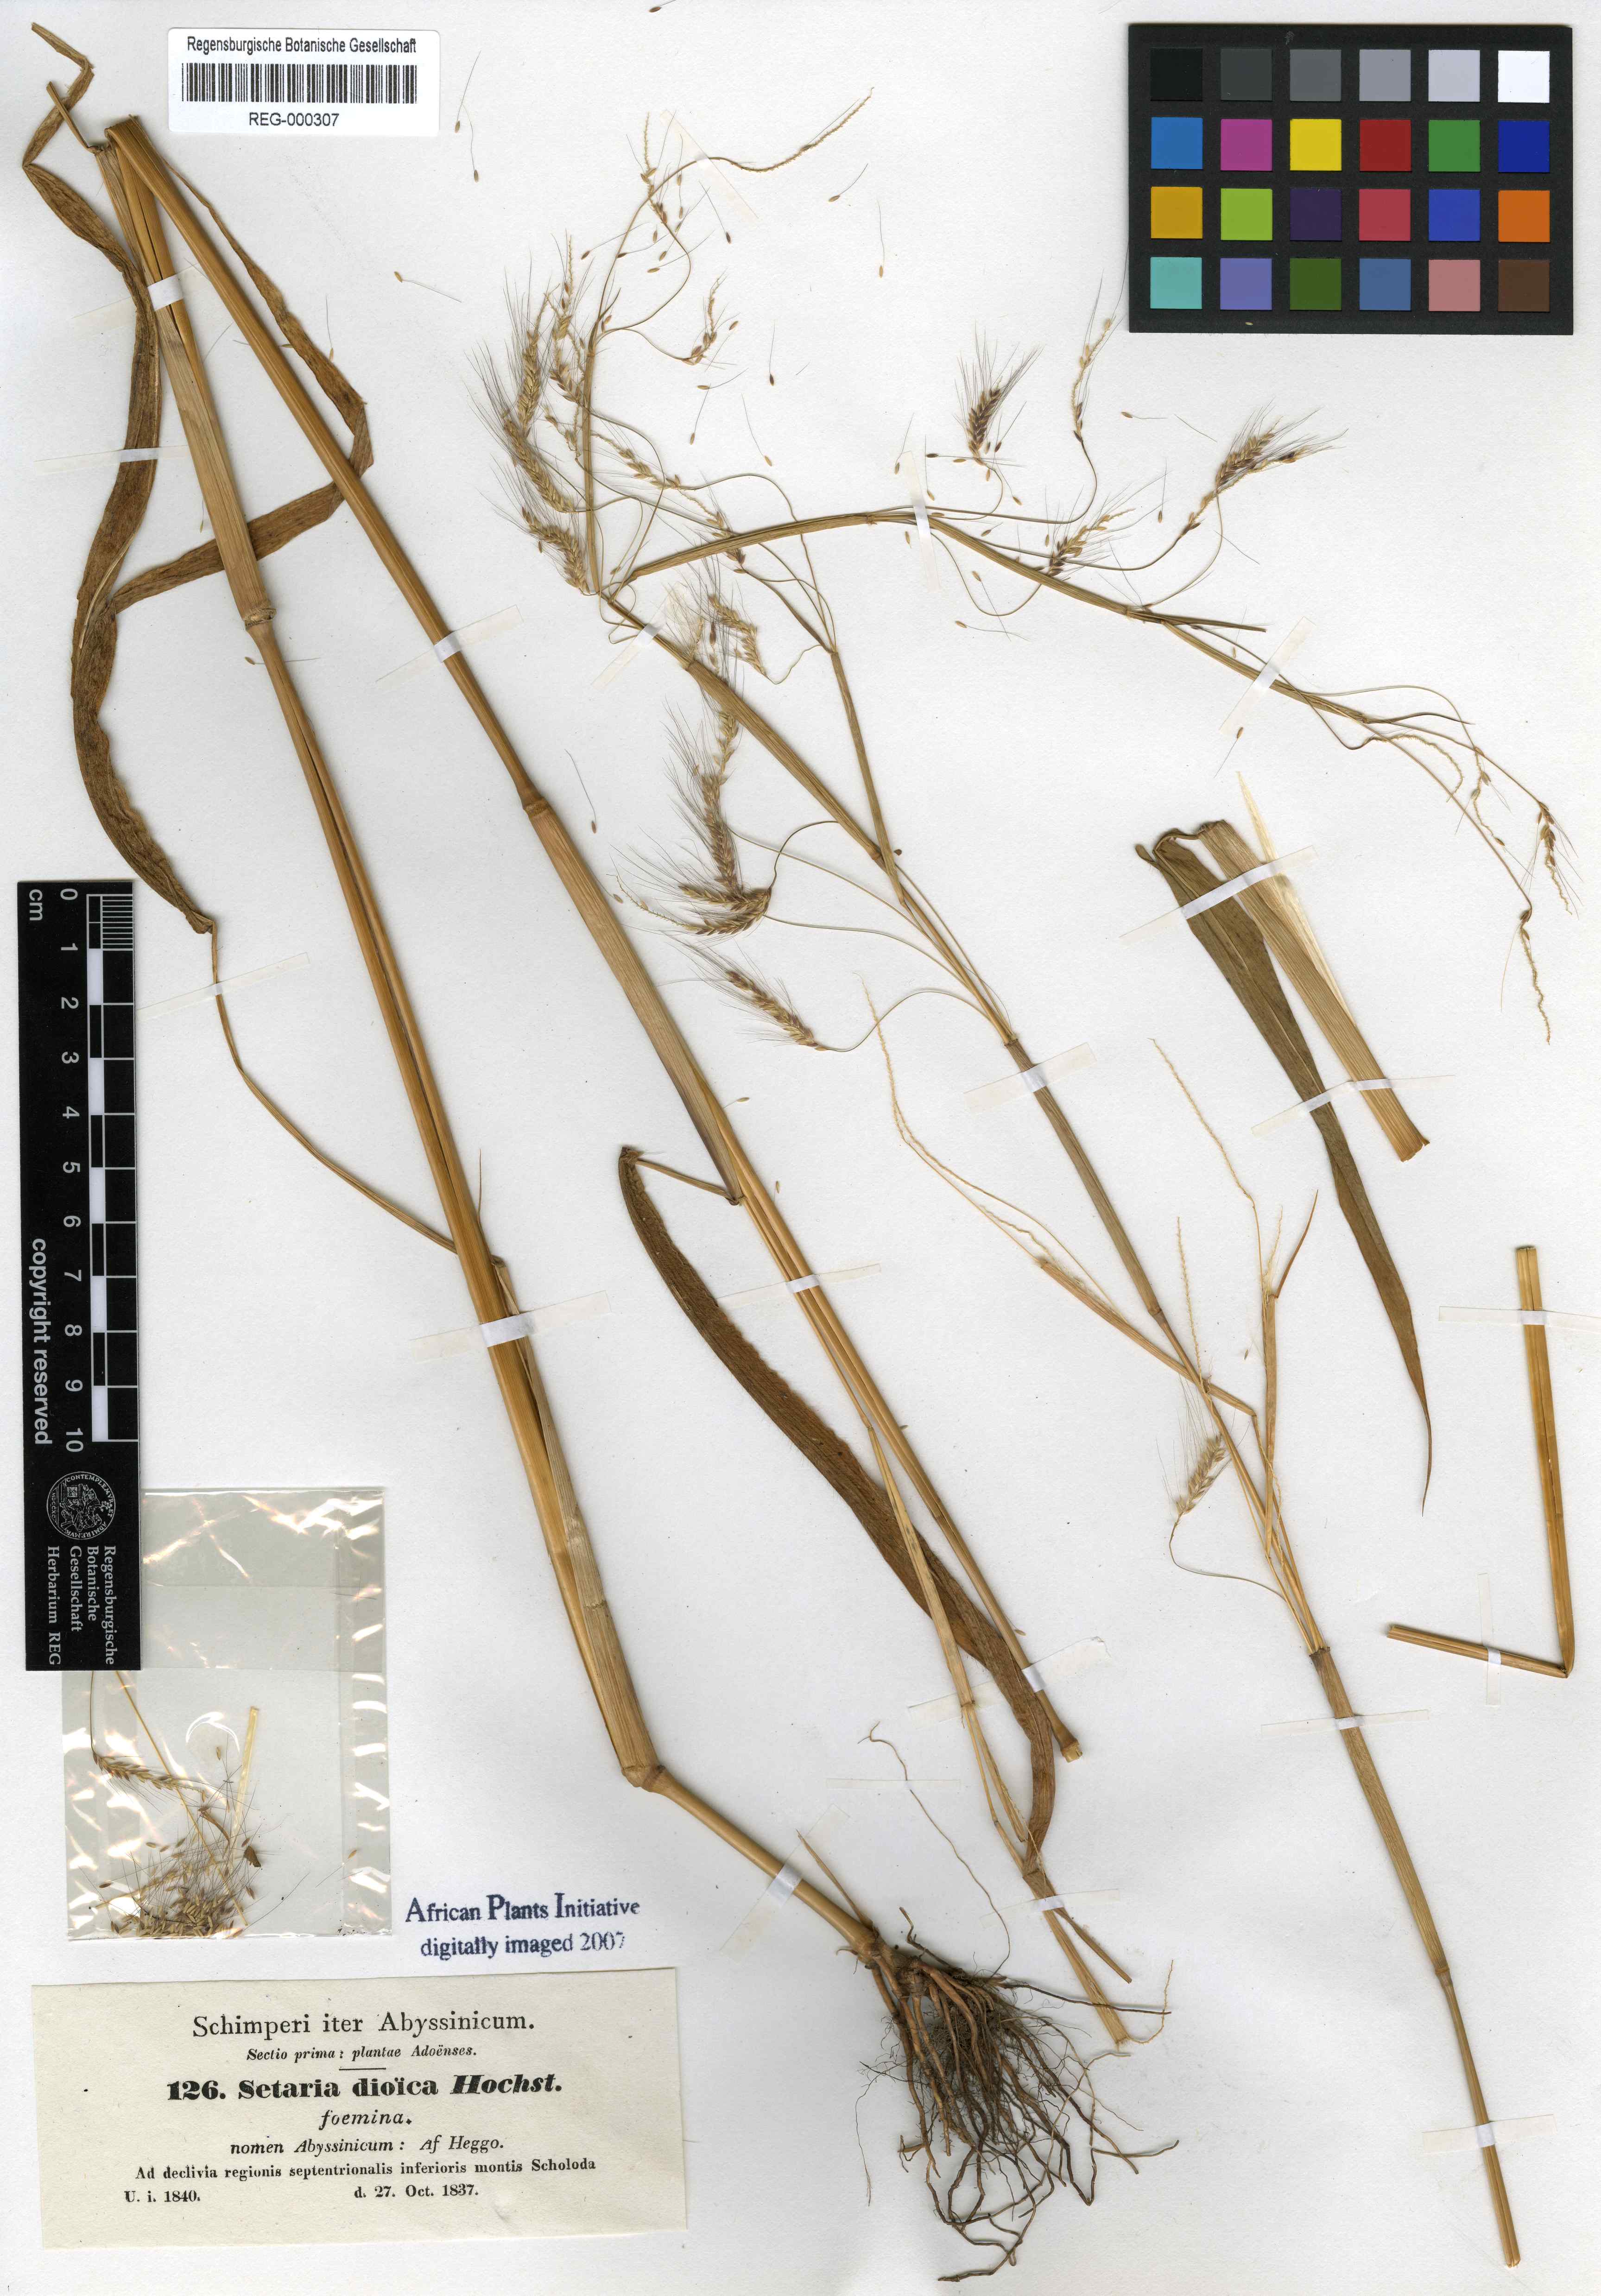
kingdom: Plantae
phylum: Tracheophyta
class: Liliopsida
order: Poales
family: Poaceae
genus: Cenchrus
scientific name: Cenchrus petiolaris
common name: Grass
